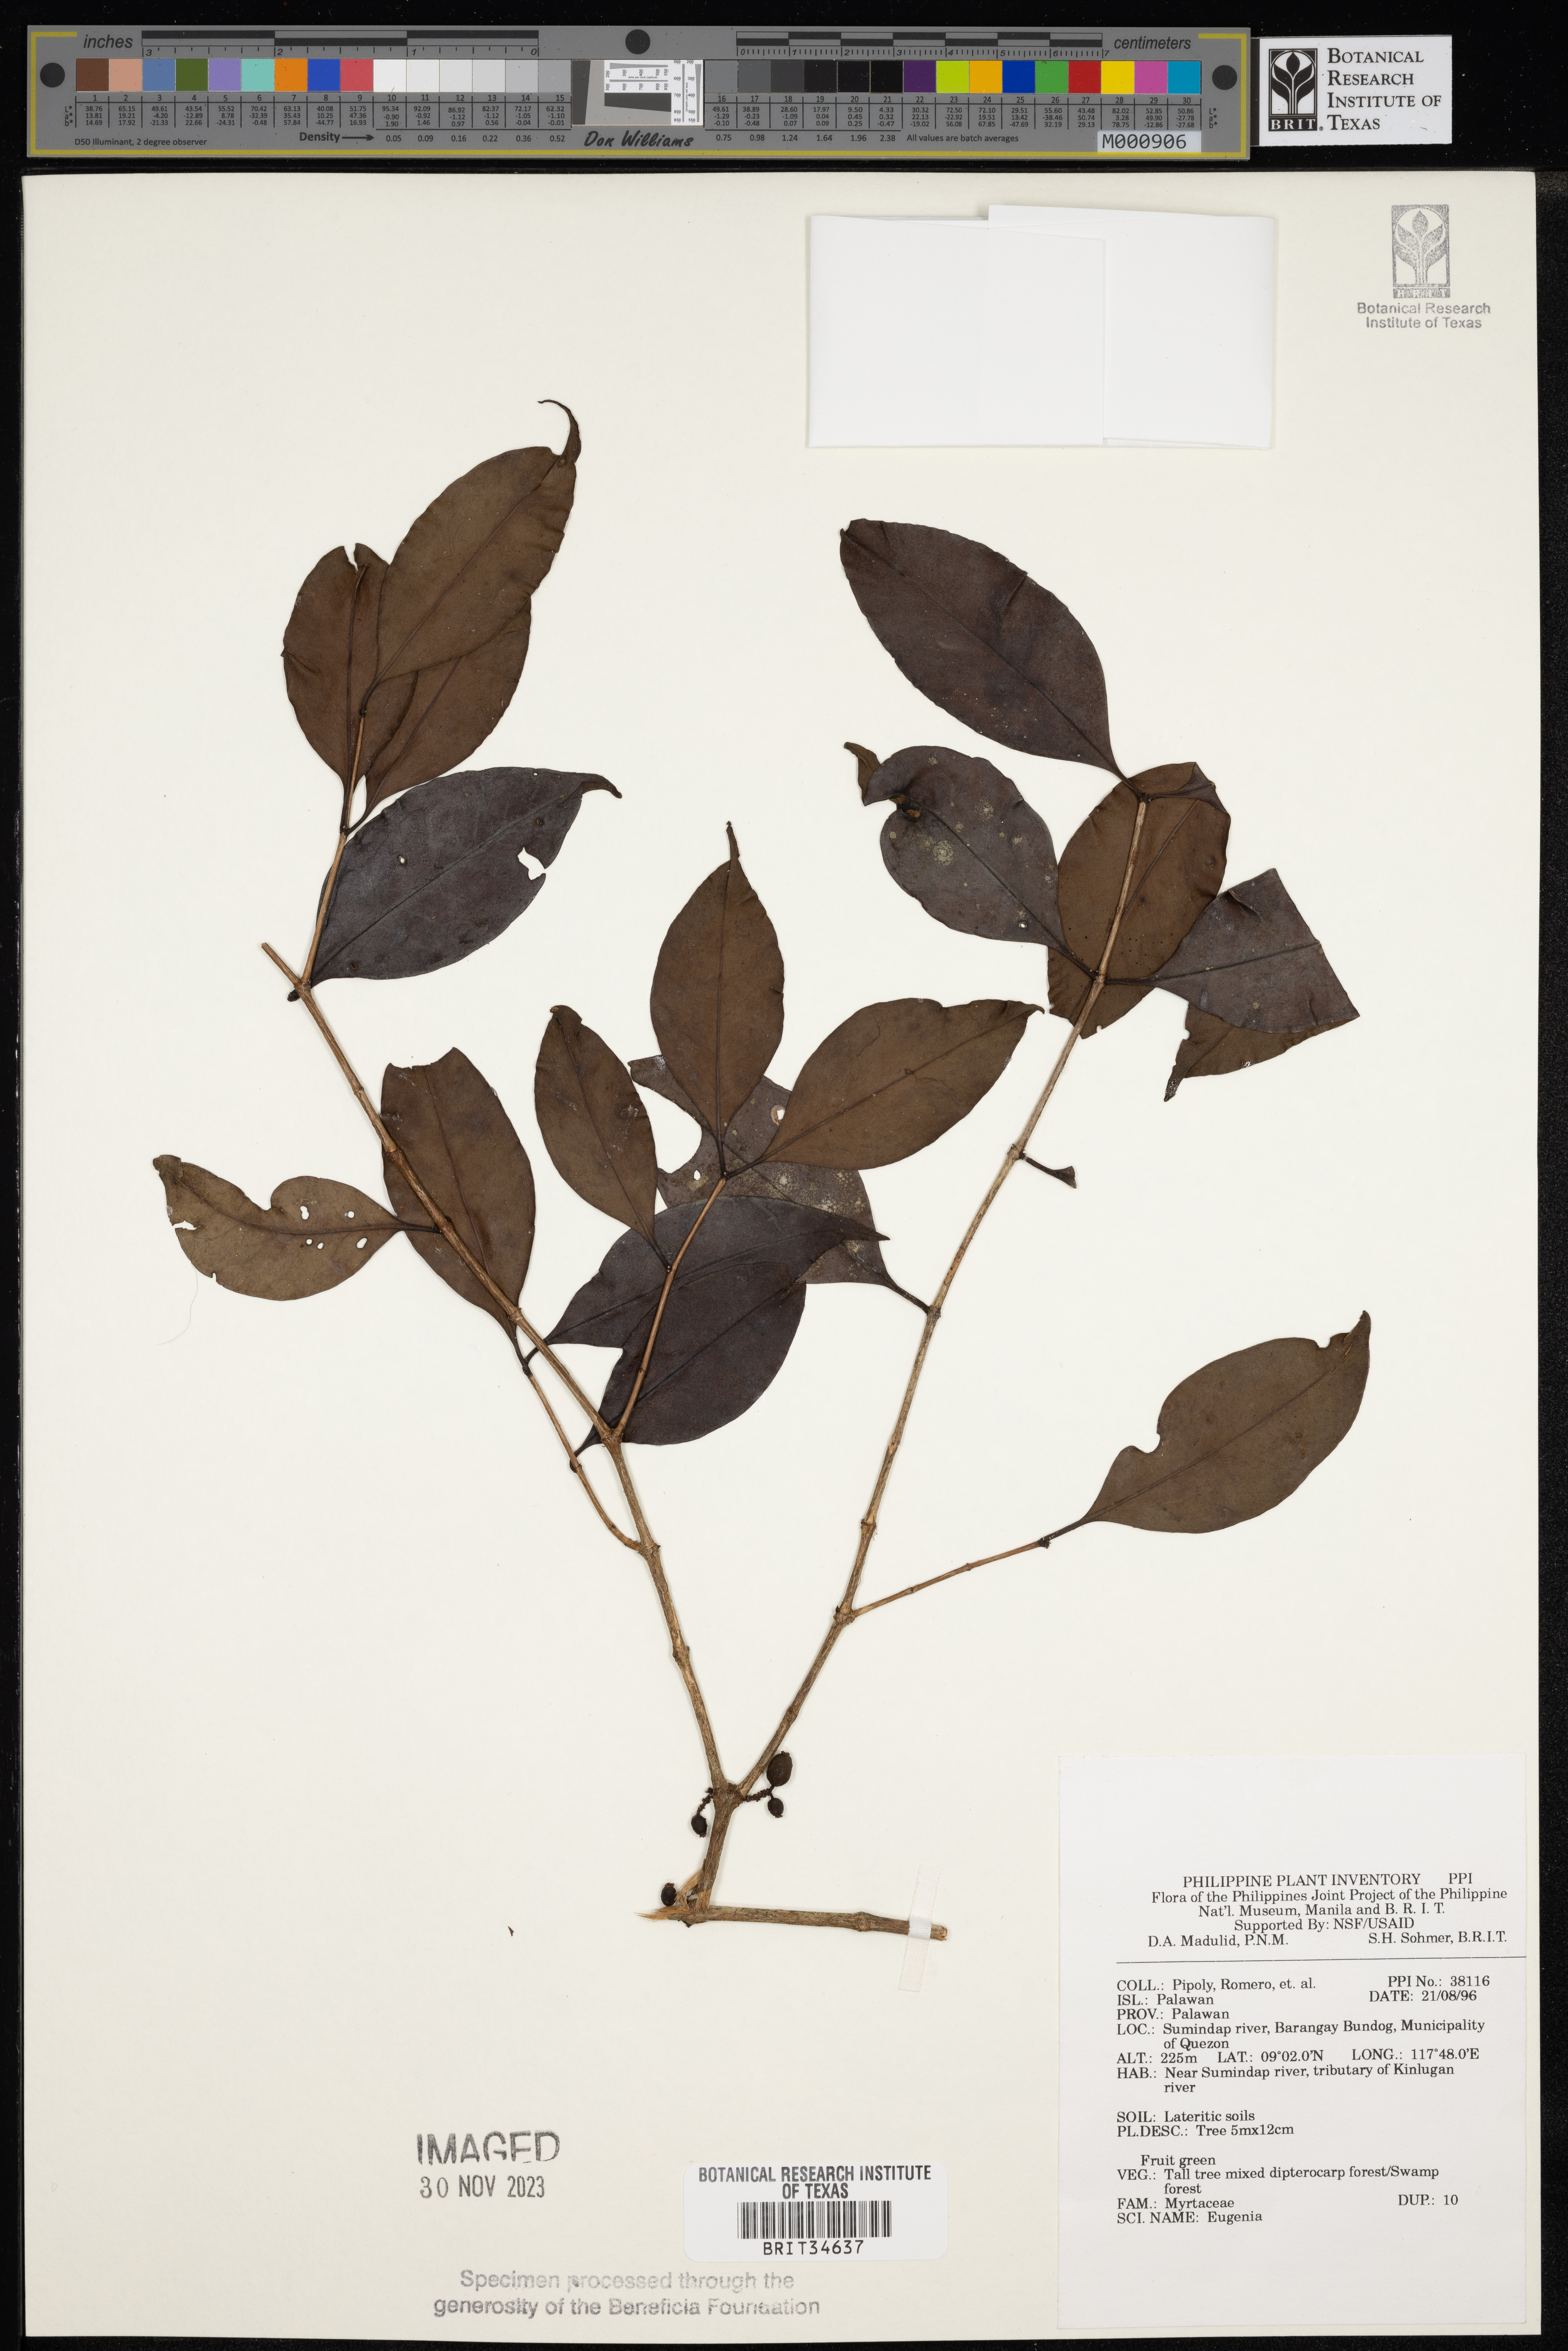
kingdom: Plantae
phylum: Tracheophyta
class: Magnoliopsida
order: Myrtales
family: Myrtaceae
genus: Eugenia
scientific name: Eugenia
